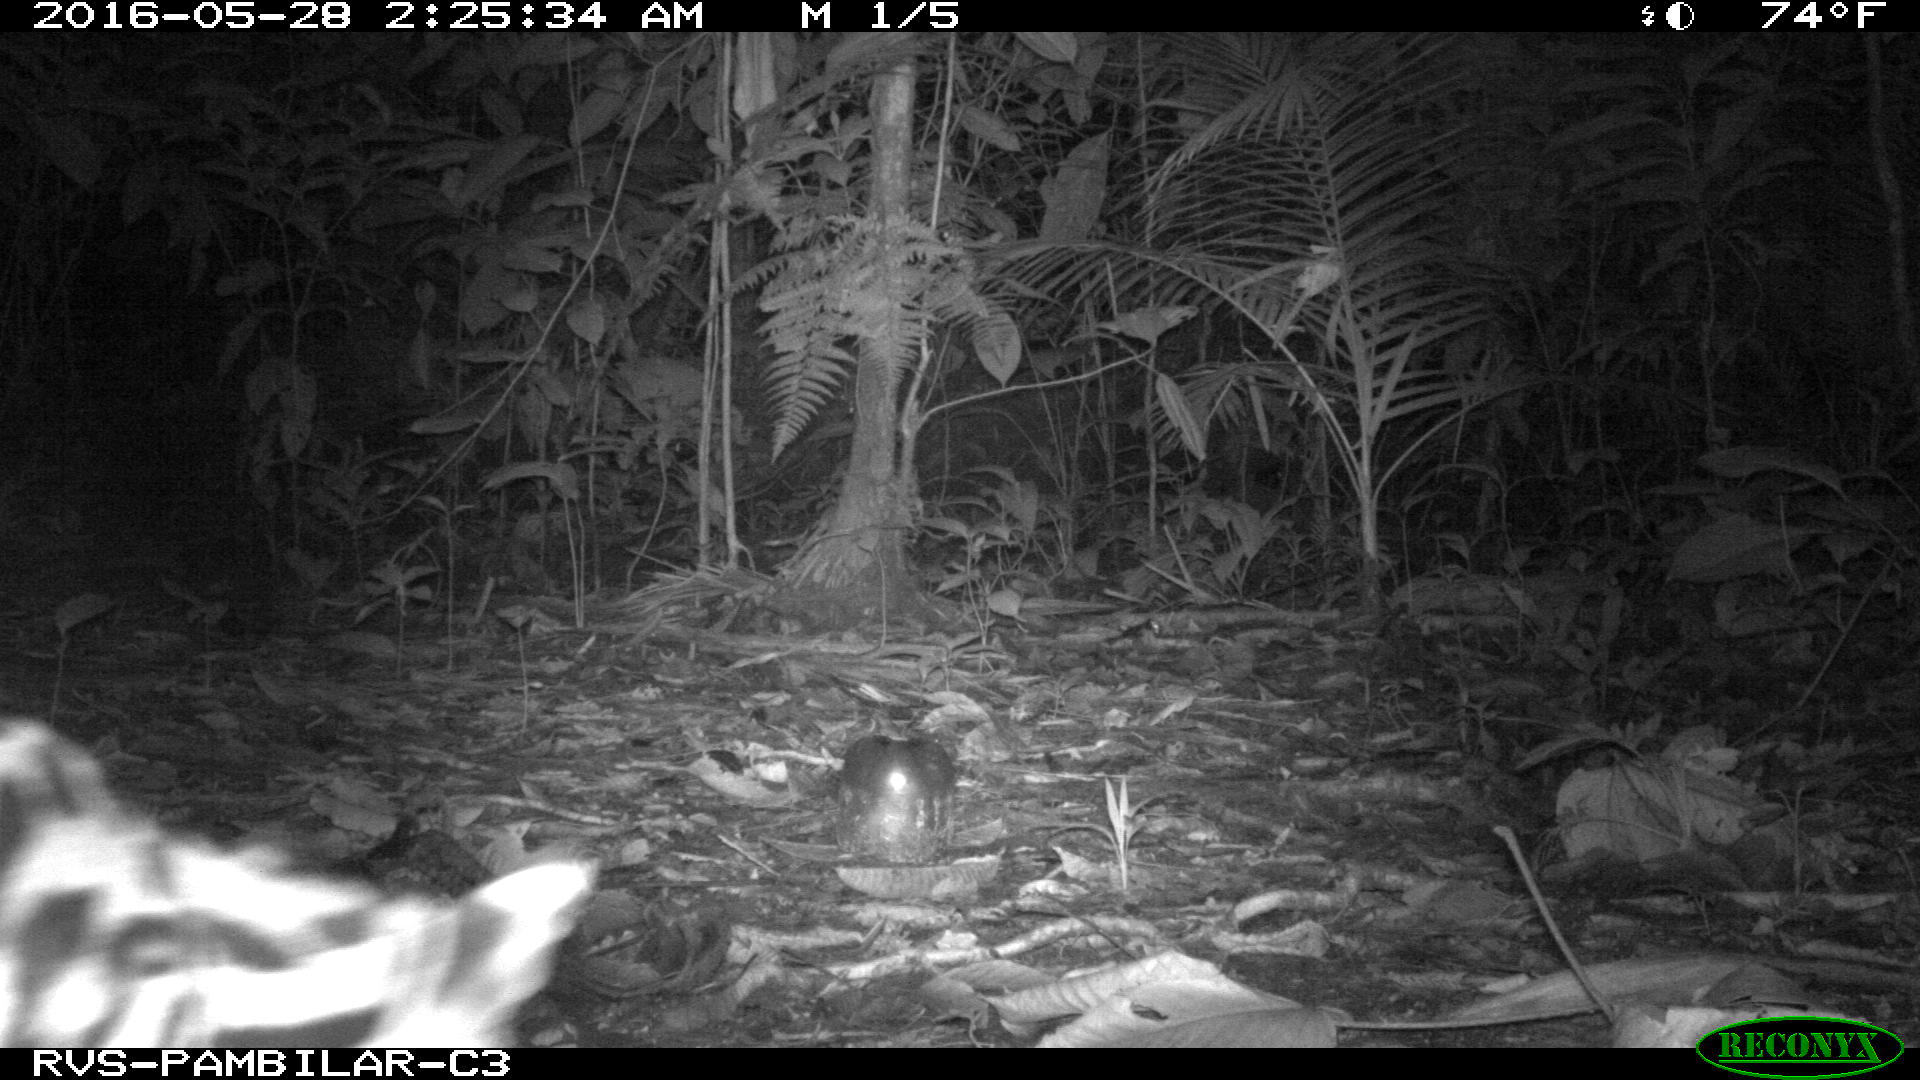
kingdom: Animalia
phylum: Chordata
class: Mammalia
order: Carnivora
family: Felidae
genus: Leopardus
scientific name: Leopardus pardalis
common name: Ocelot
